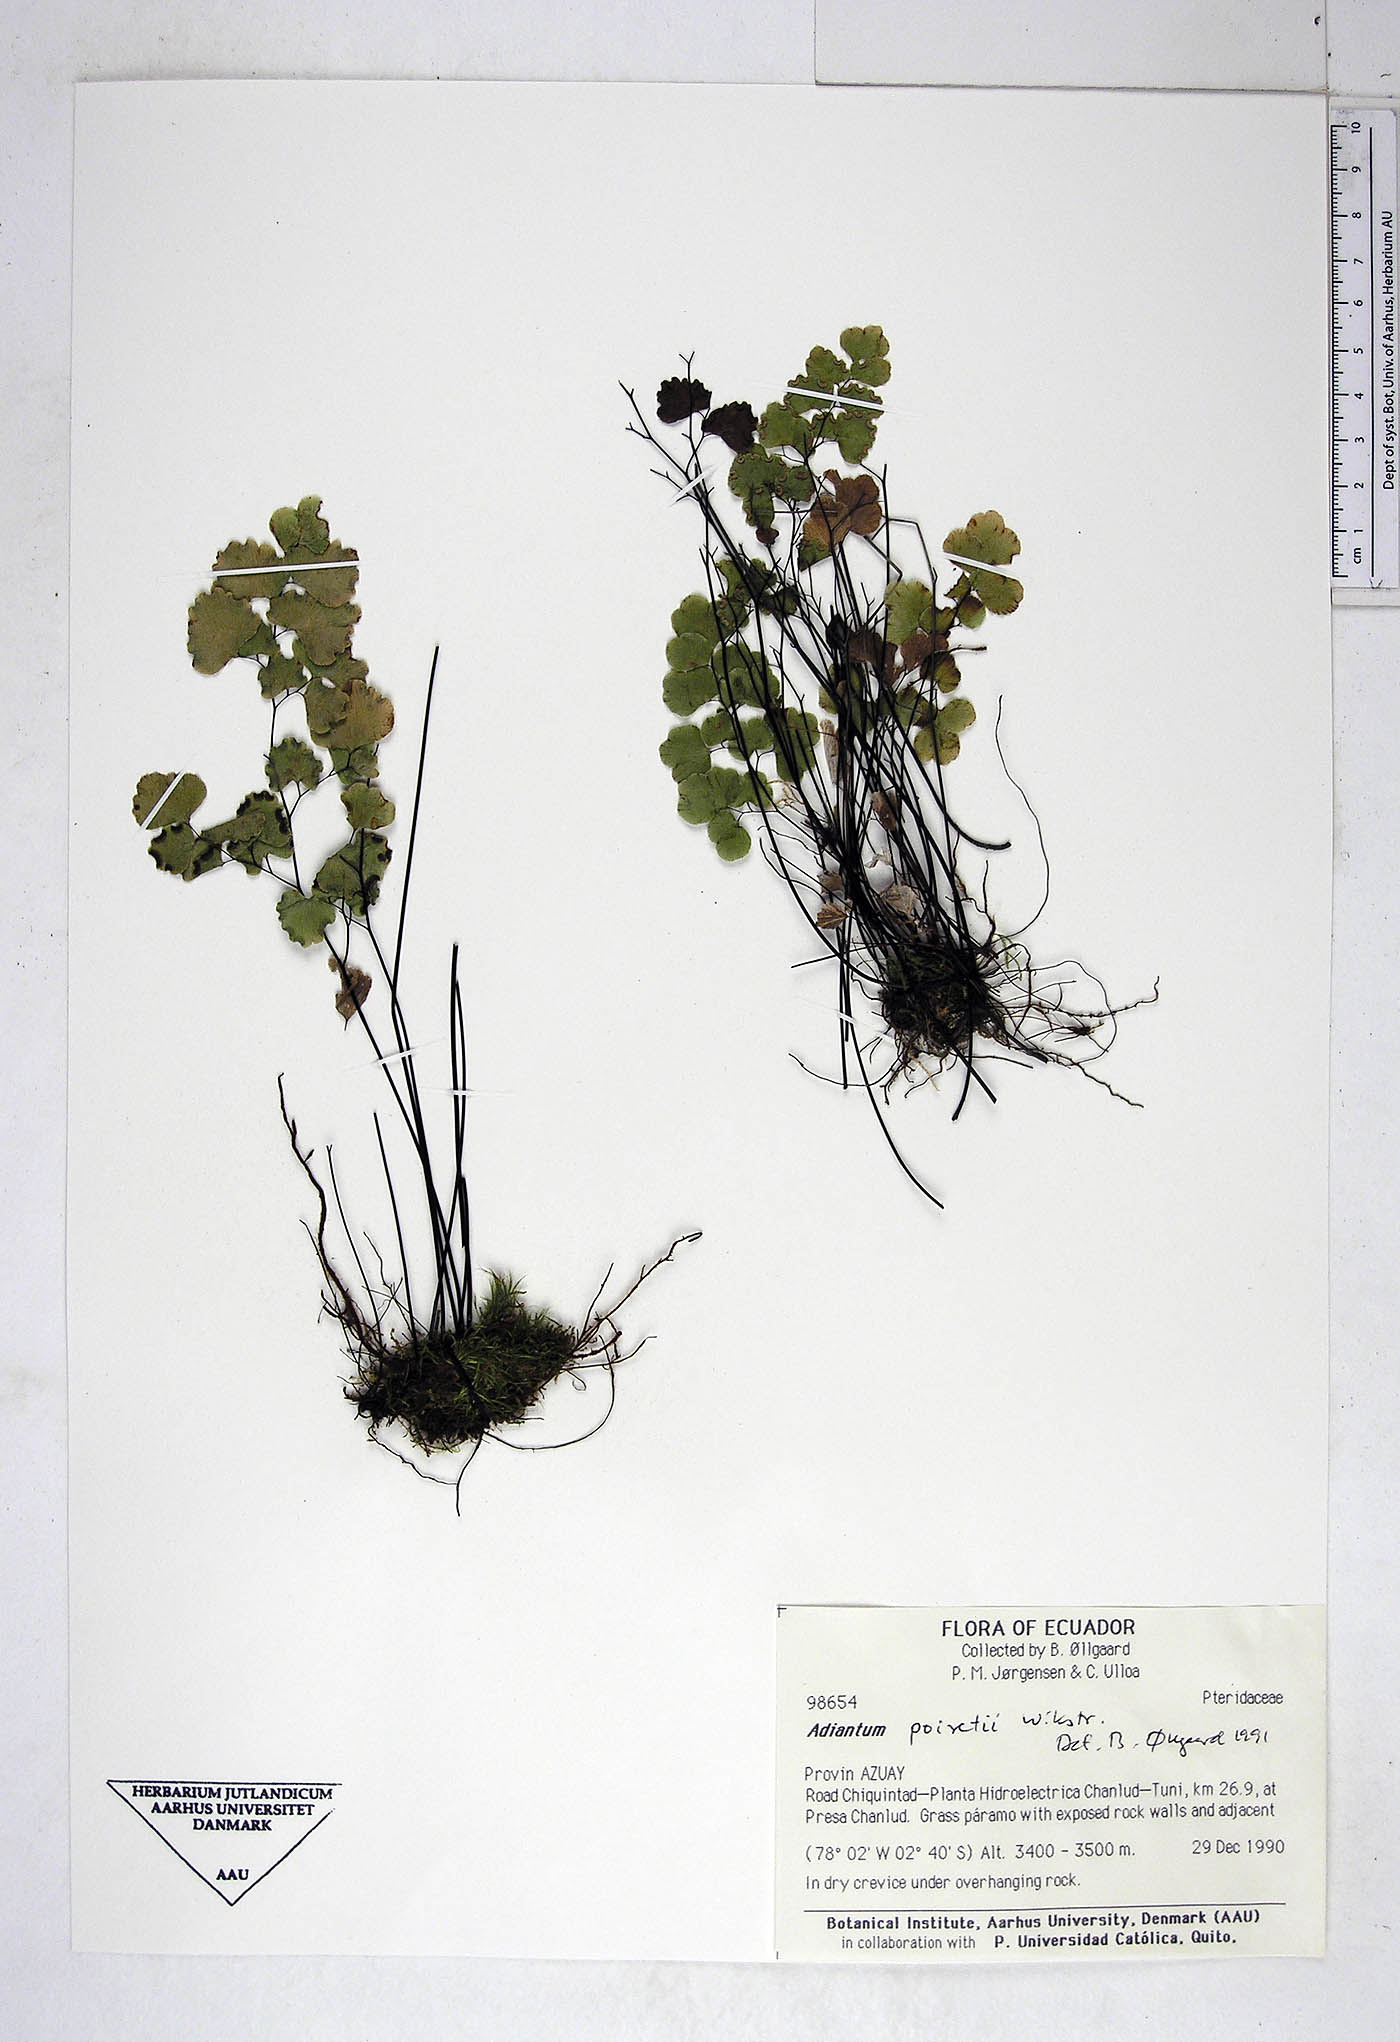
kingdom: Plantae
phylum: Tracheophyta
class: Polypodiopsida
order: Polypodiales
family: Pteridaceae
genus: Adiantum
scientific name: Adiantum poiretii
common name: Mexican maidenhair
